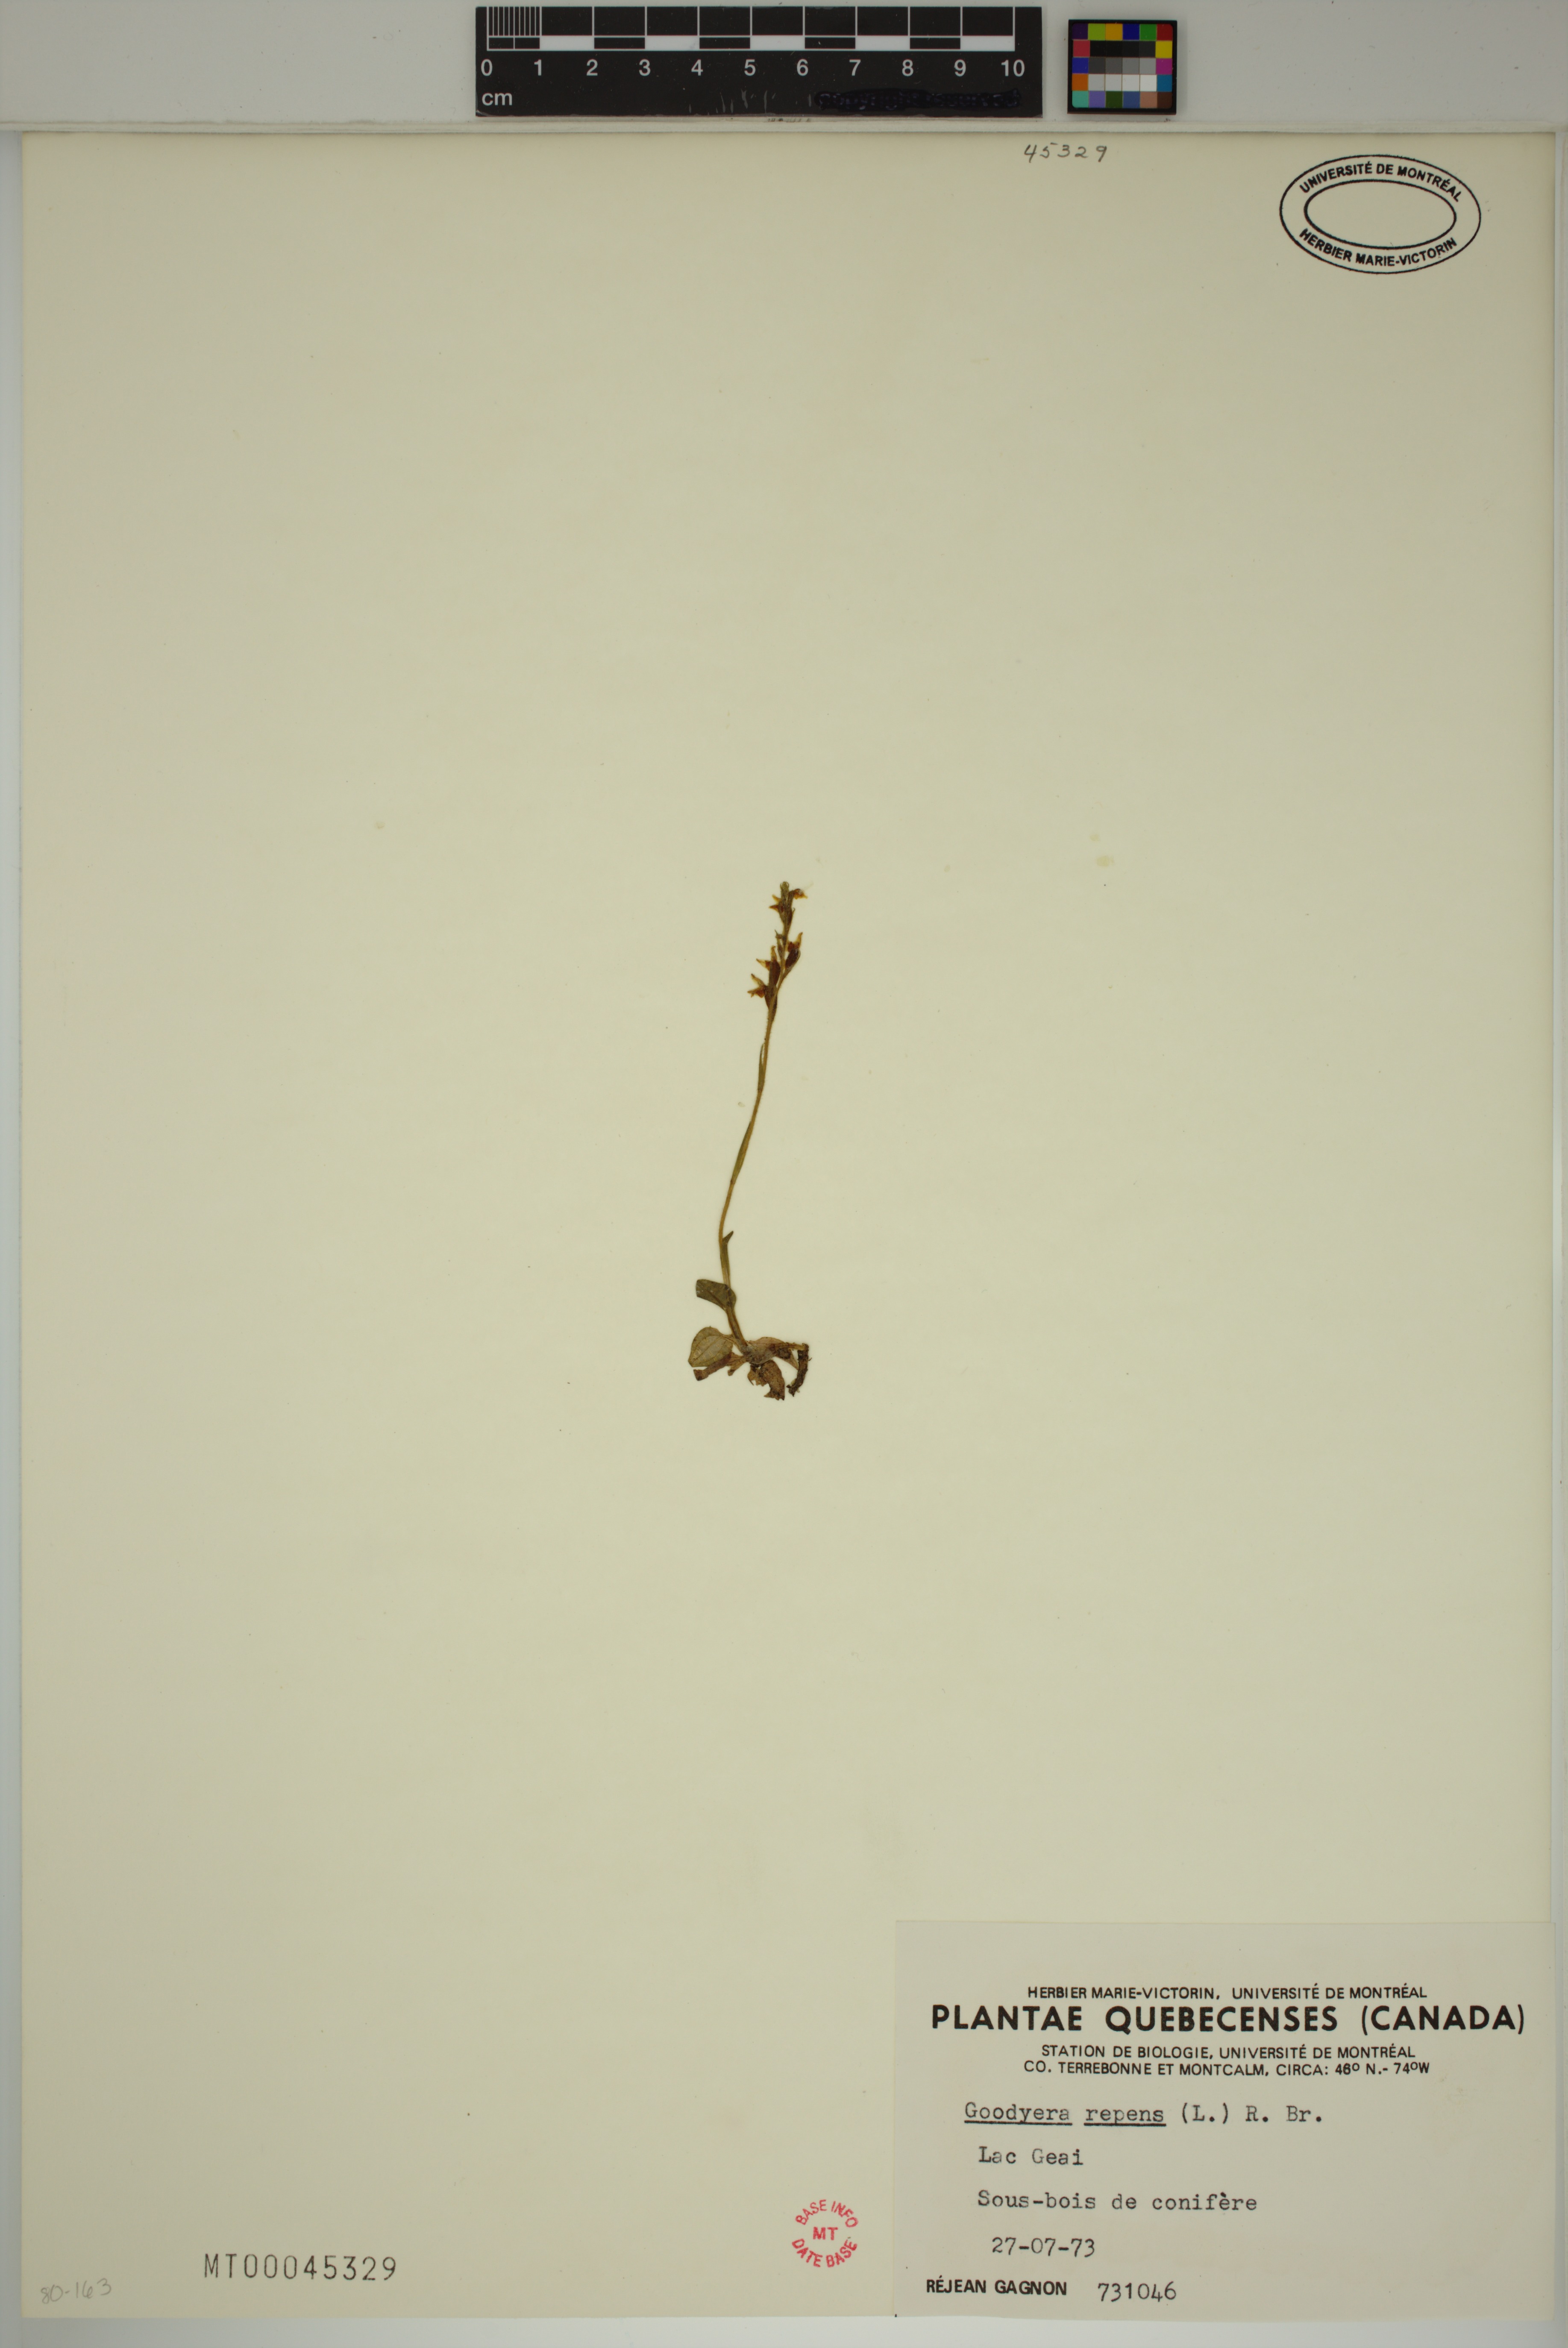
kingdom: Plantae
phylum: Tracheophyta
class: Liliopsida
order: Asparagales
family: Orchidaceae
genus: Goodyera
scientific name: Goodyera repens
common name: Creeping lady's-tresses
